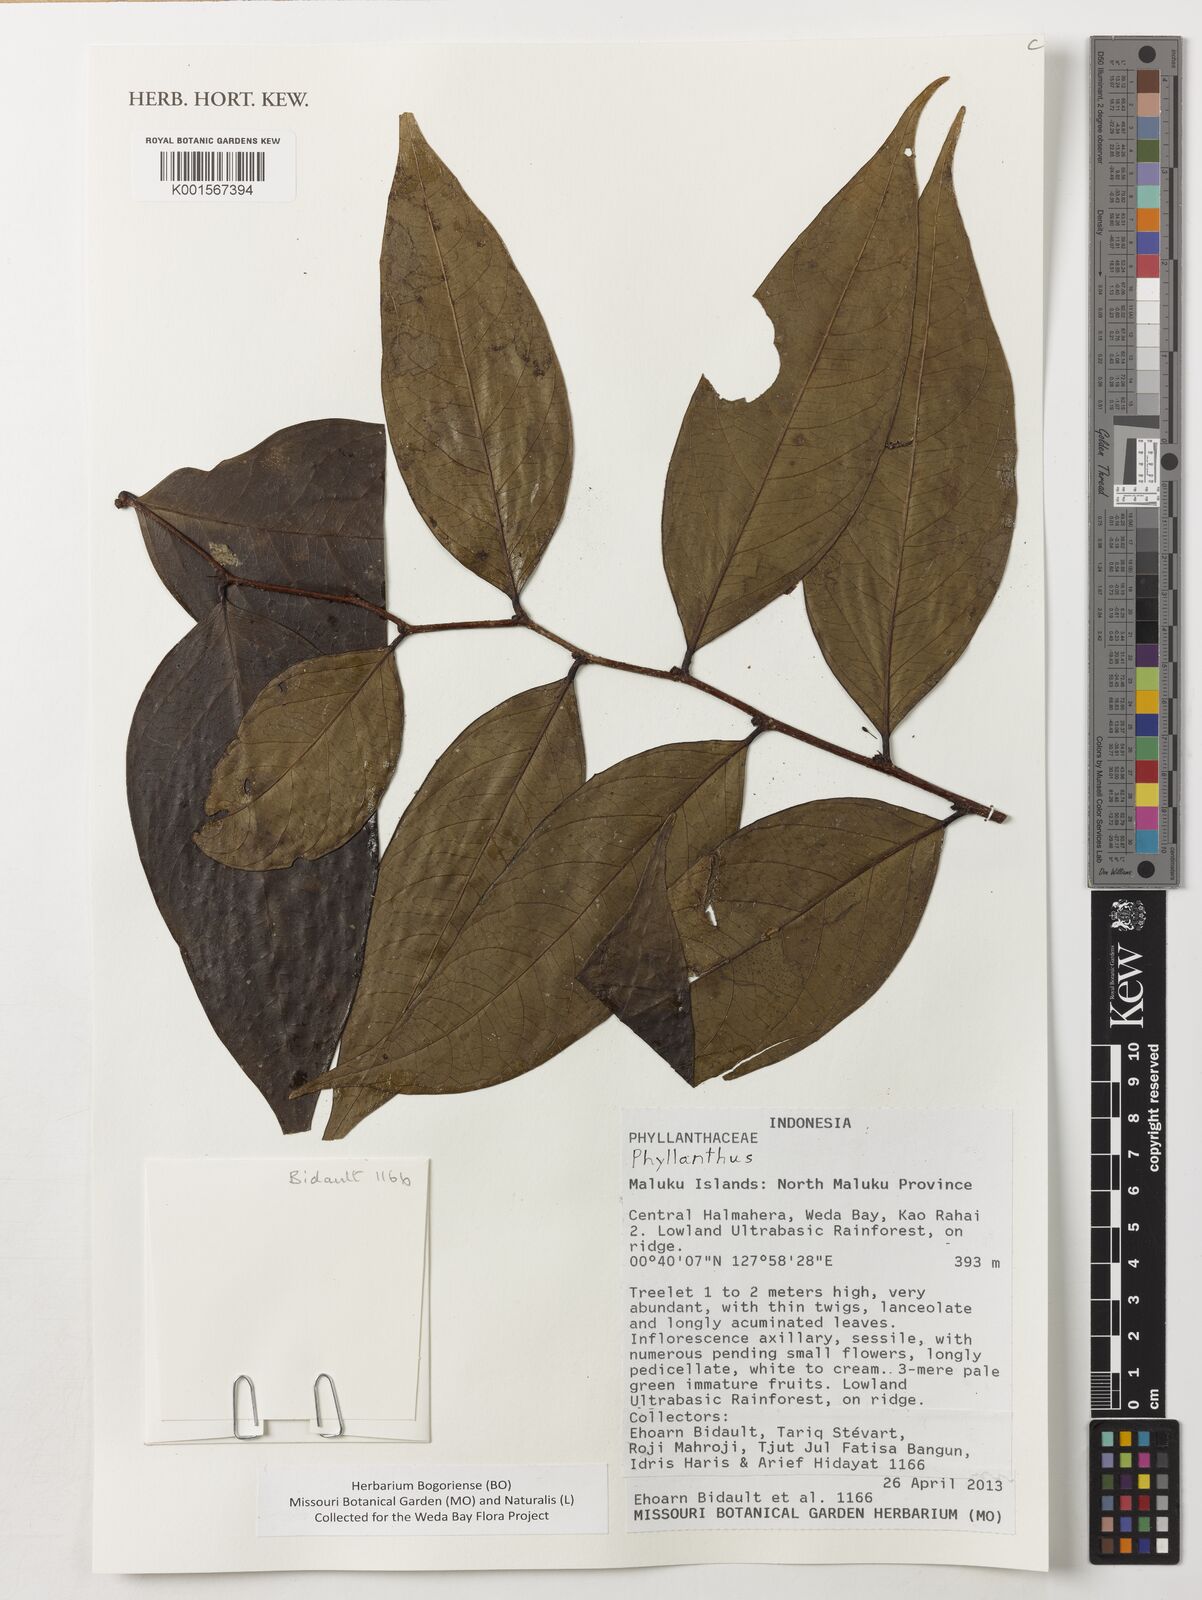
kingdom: Plantae
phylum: Tracheophyta
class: Magnoliopsida
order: Malpighiales
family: Phyllanthaceae
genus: Phyllanthus
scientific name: Phyllanthus
